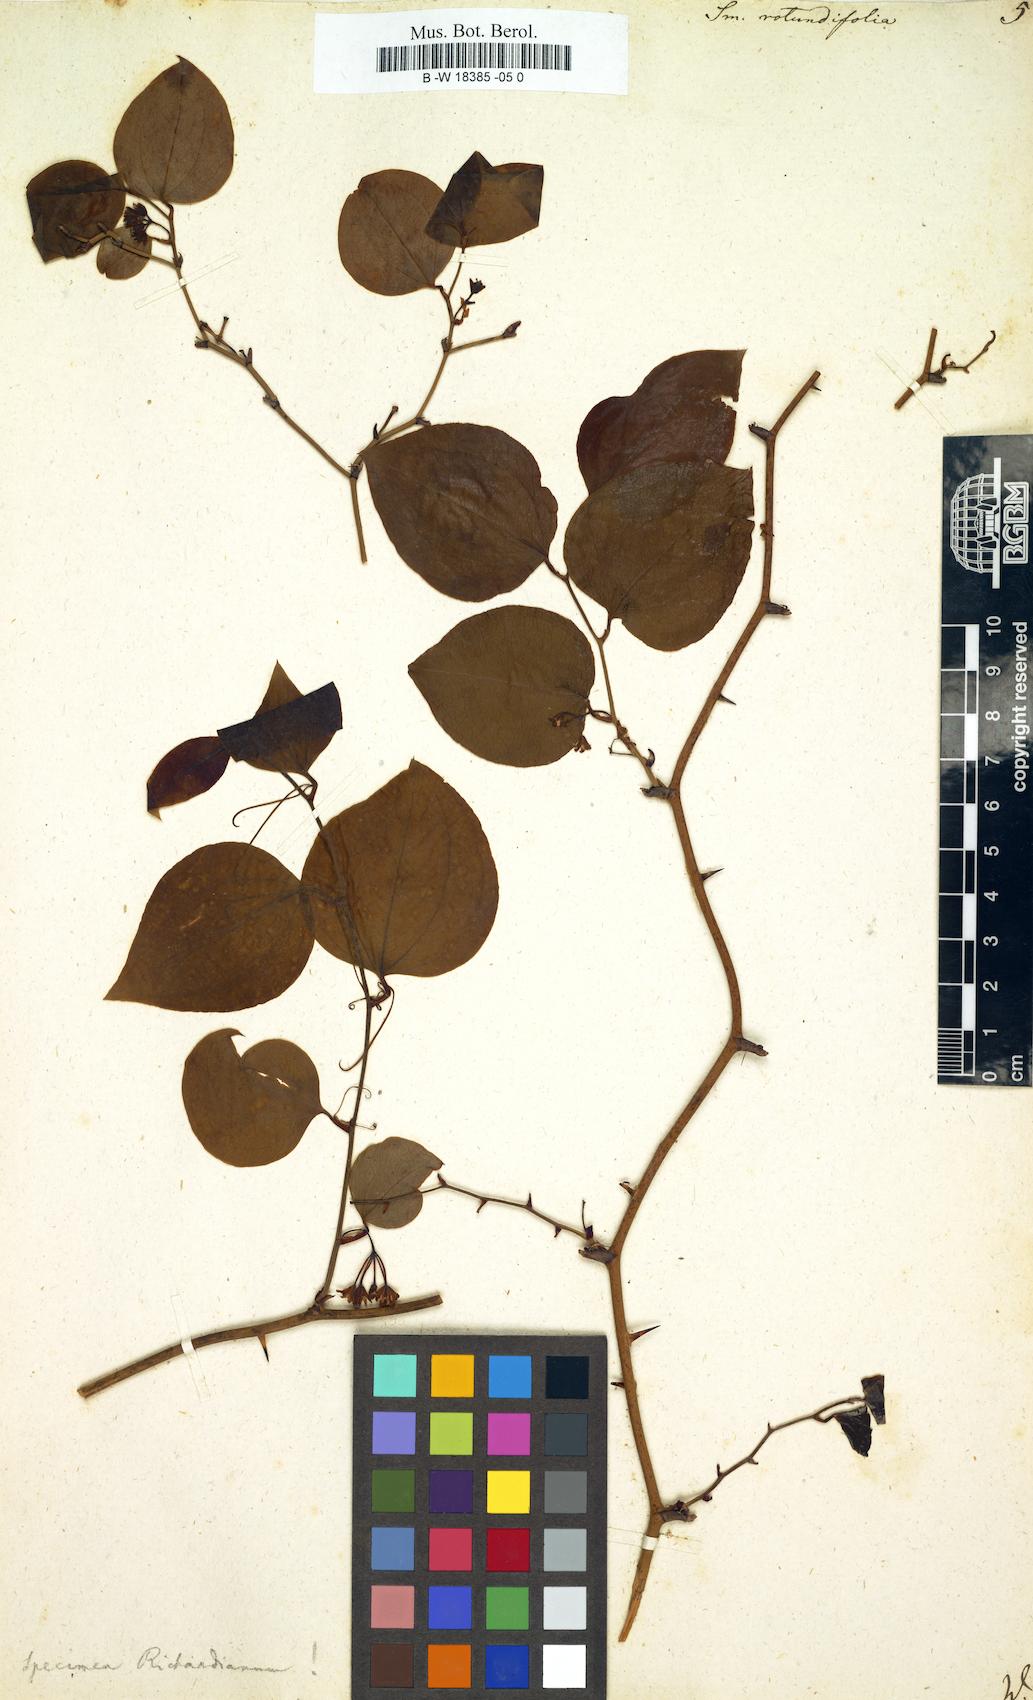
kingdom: Plantae
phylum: Tracheophyta
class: Liliopsida
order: Liliales
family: Smilacaceae
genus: Smilax
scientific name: Smilax rotundifolia
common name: Bullbriar
